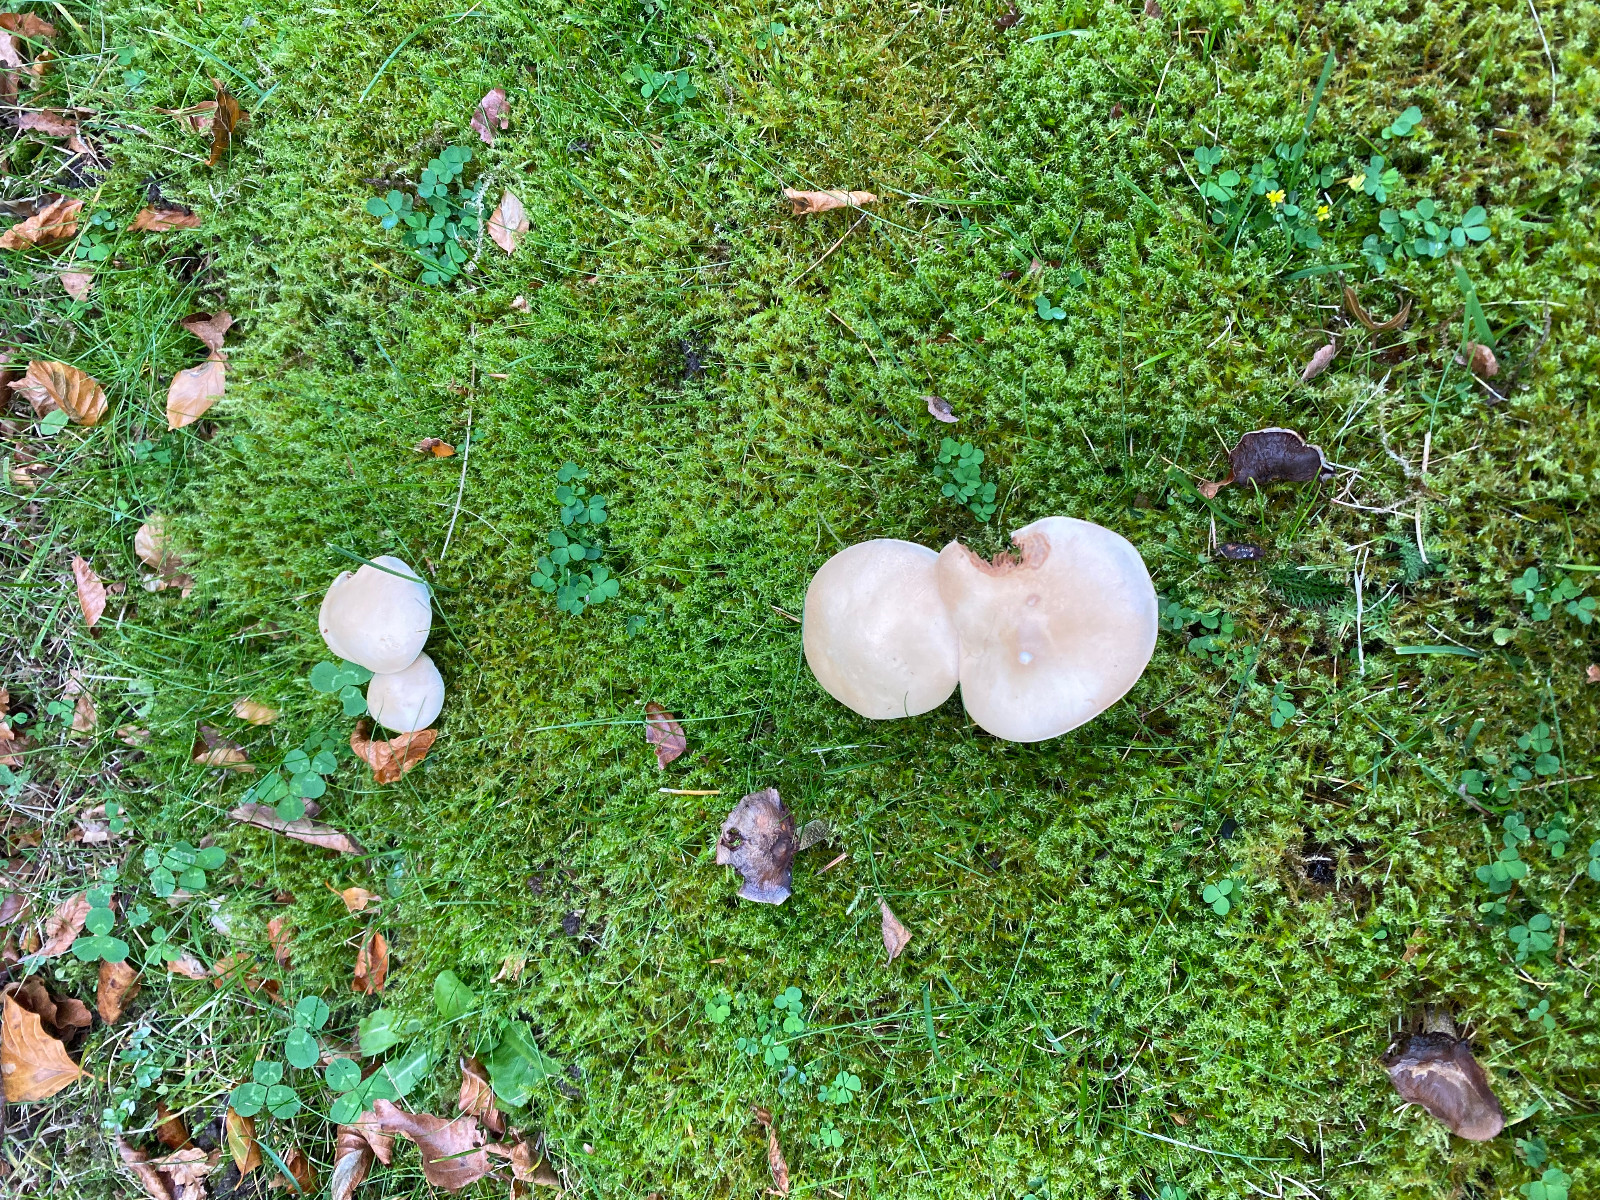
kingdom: Fungi
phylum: Basidiomycota
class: Agaricomycetes
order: Agaricales
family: Hymenogastraceae
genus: Hebeloma
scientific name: Hebeloma
